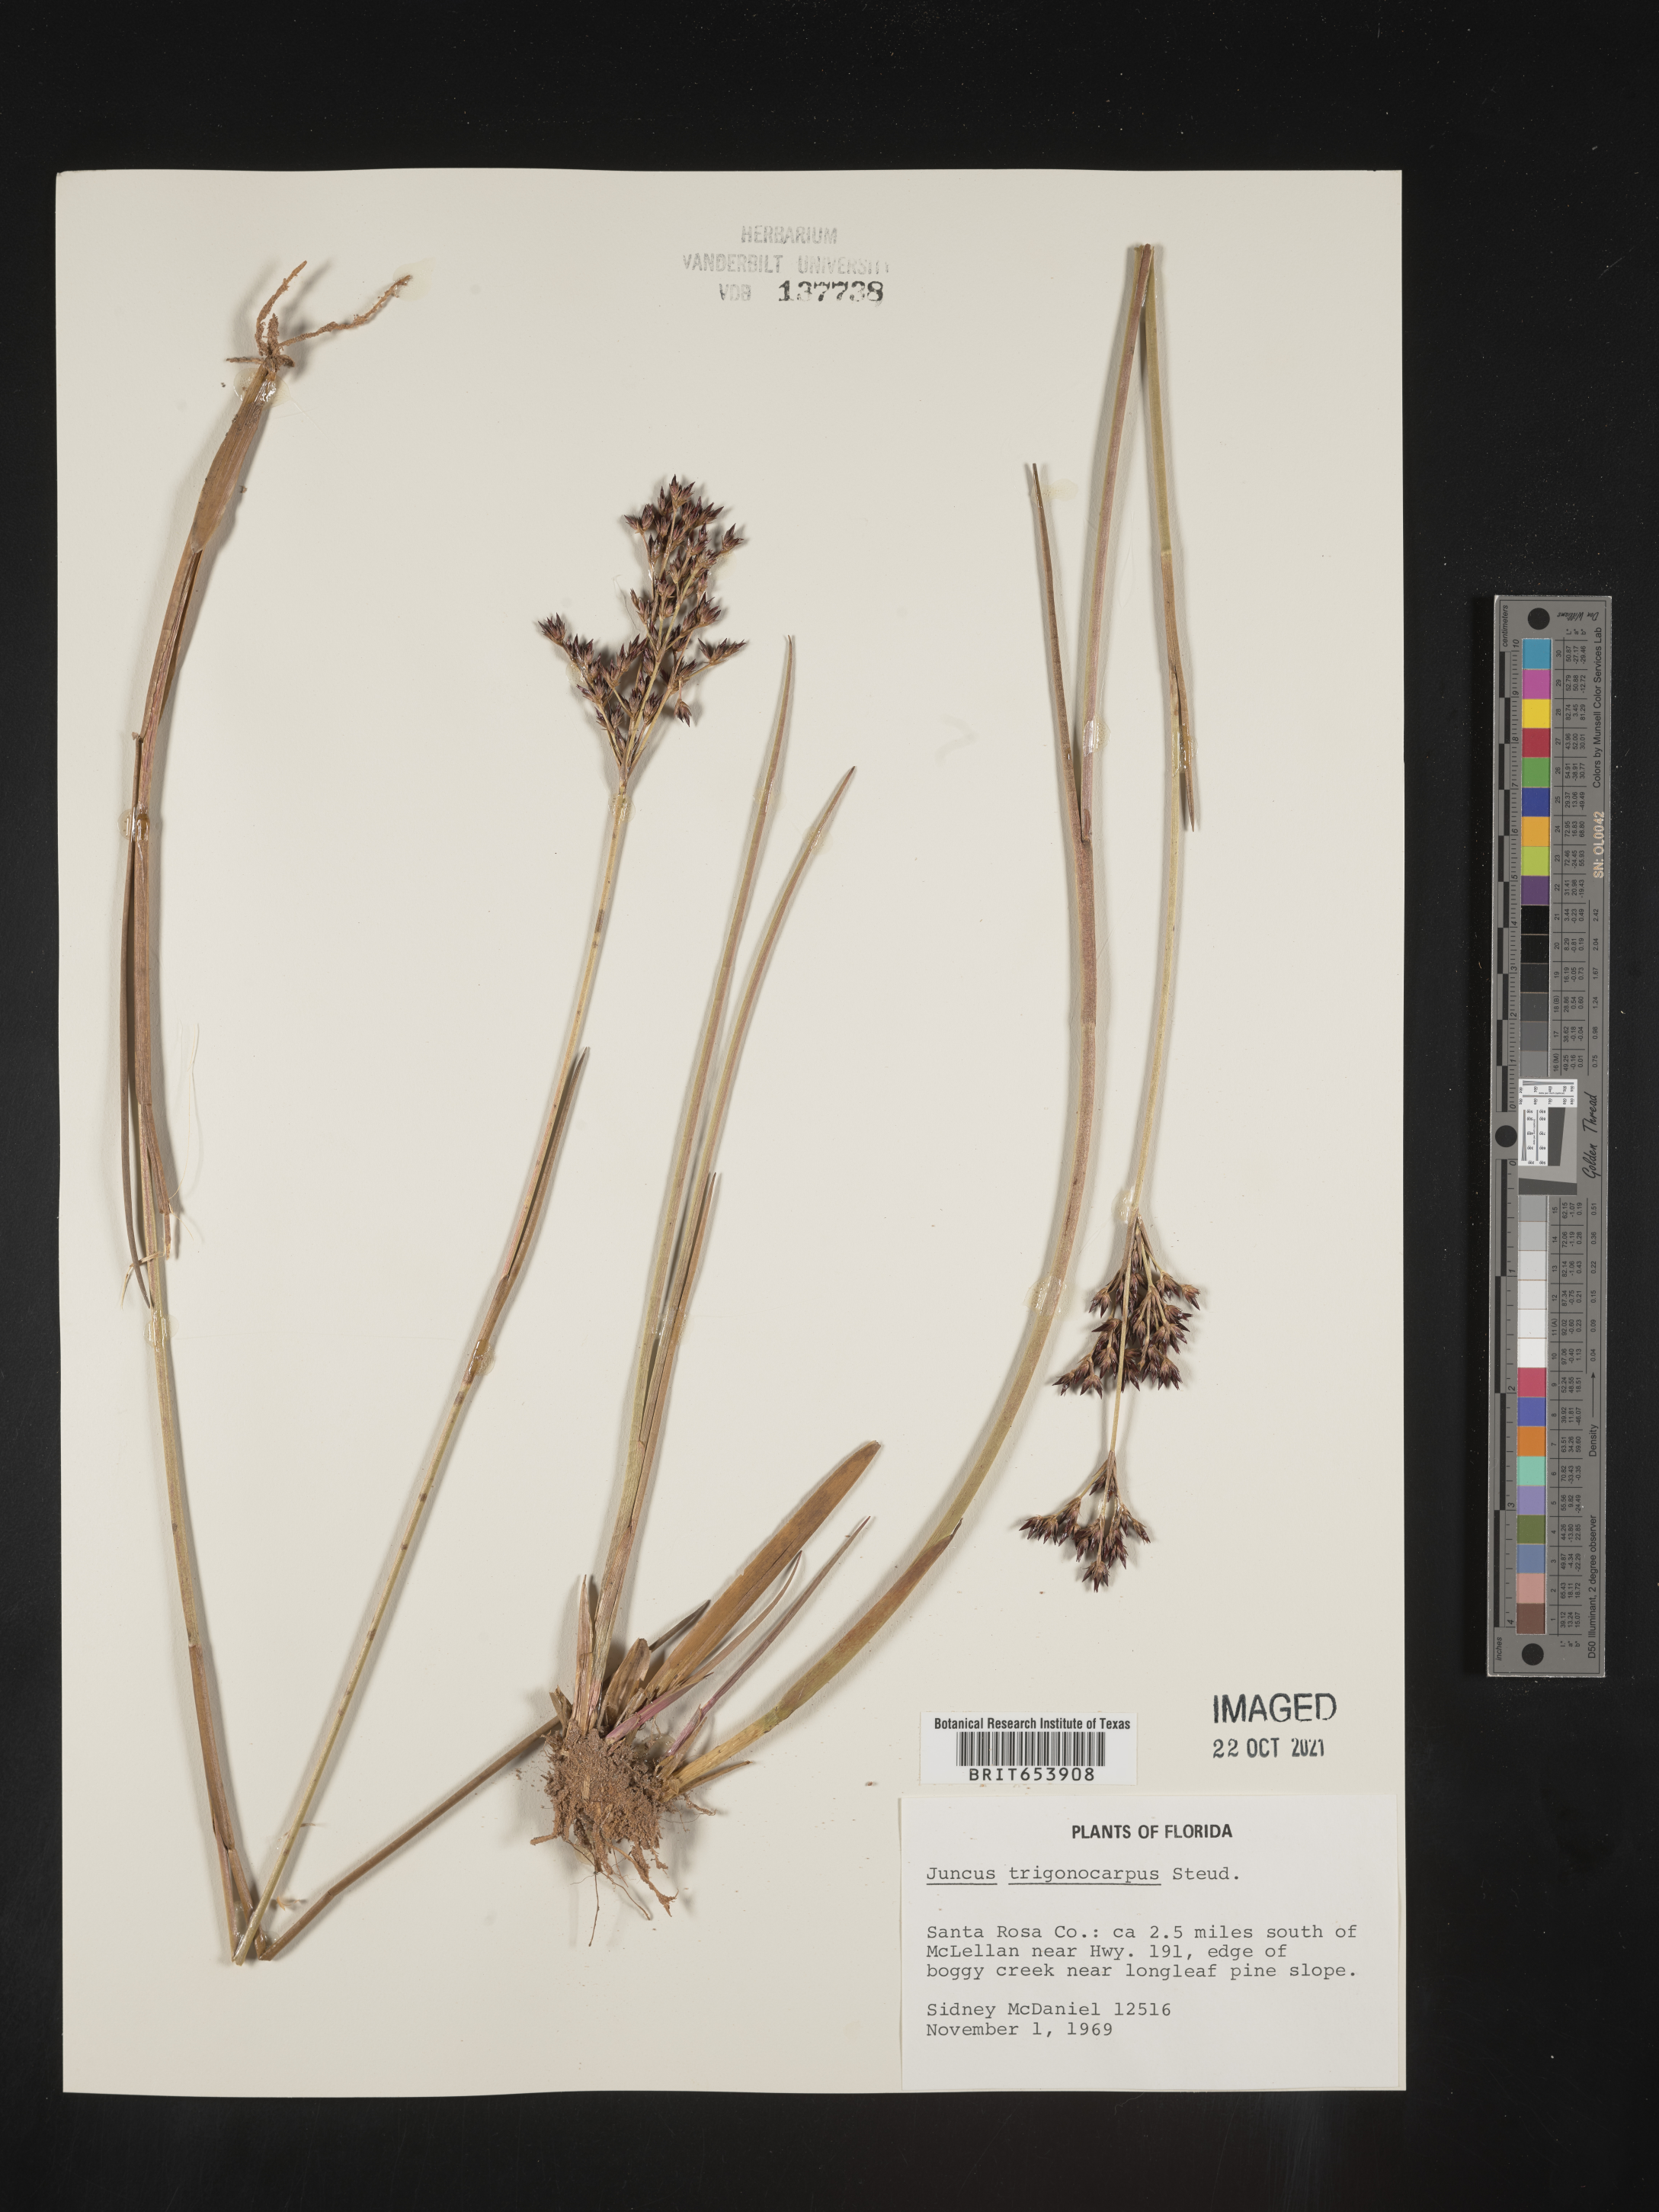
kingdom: Plantae
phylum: Tracheophyta
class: Liliopsida
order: Poales
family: Juncaceae
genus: Juncus
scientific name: Juncus trigonocarpus
